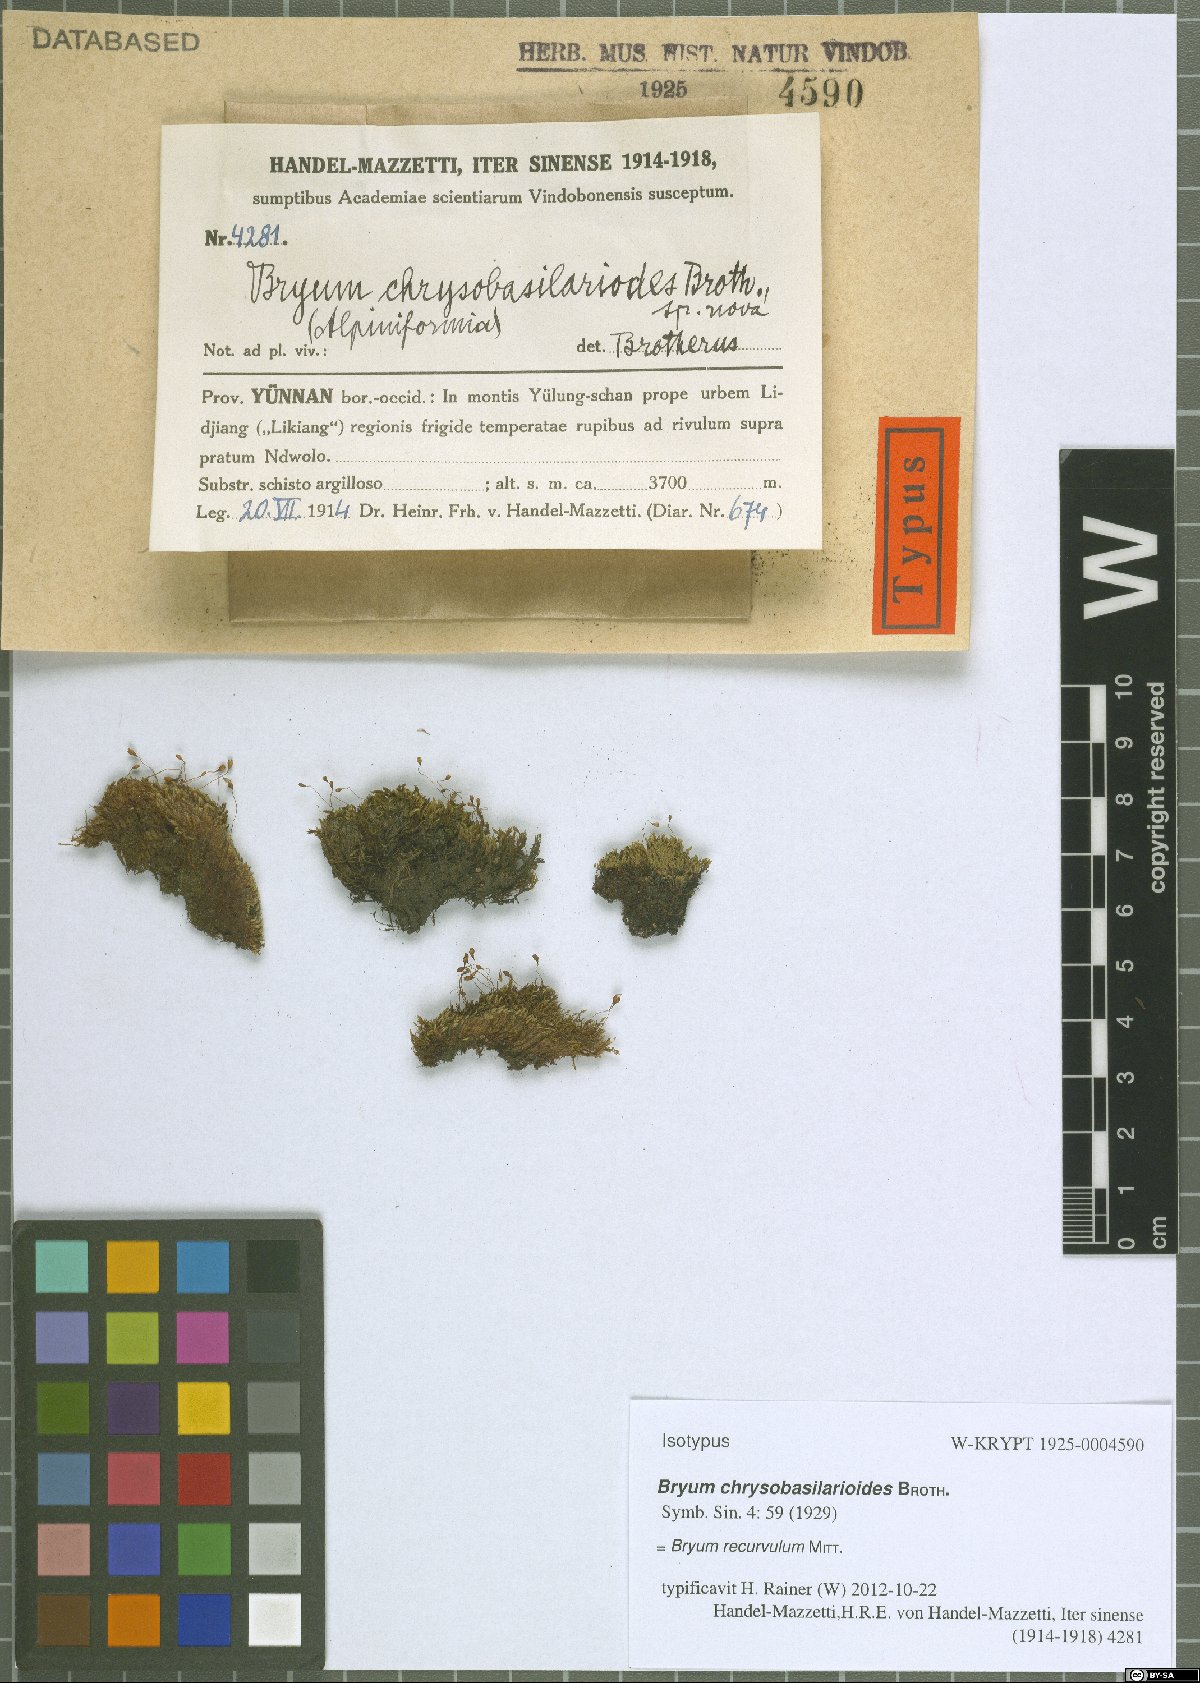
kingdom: Plantae
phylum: Bryophyta
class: Bryopsida
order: Bryales
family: Bryaceae
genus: Bryum
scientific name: Bryum recurvulum
